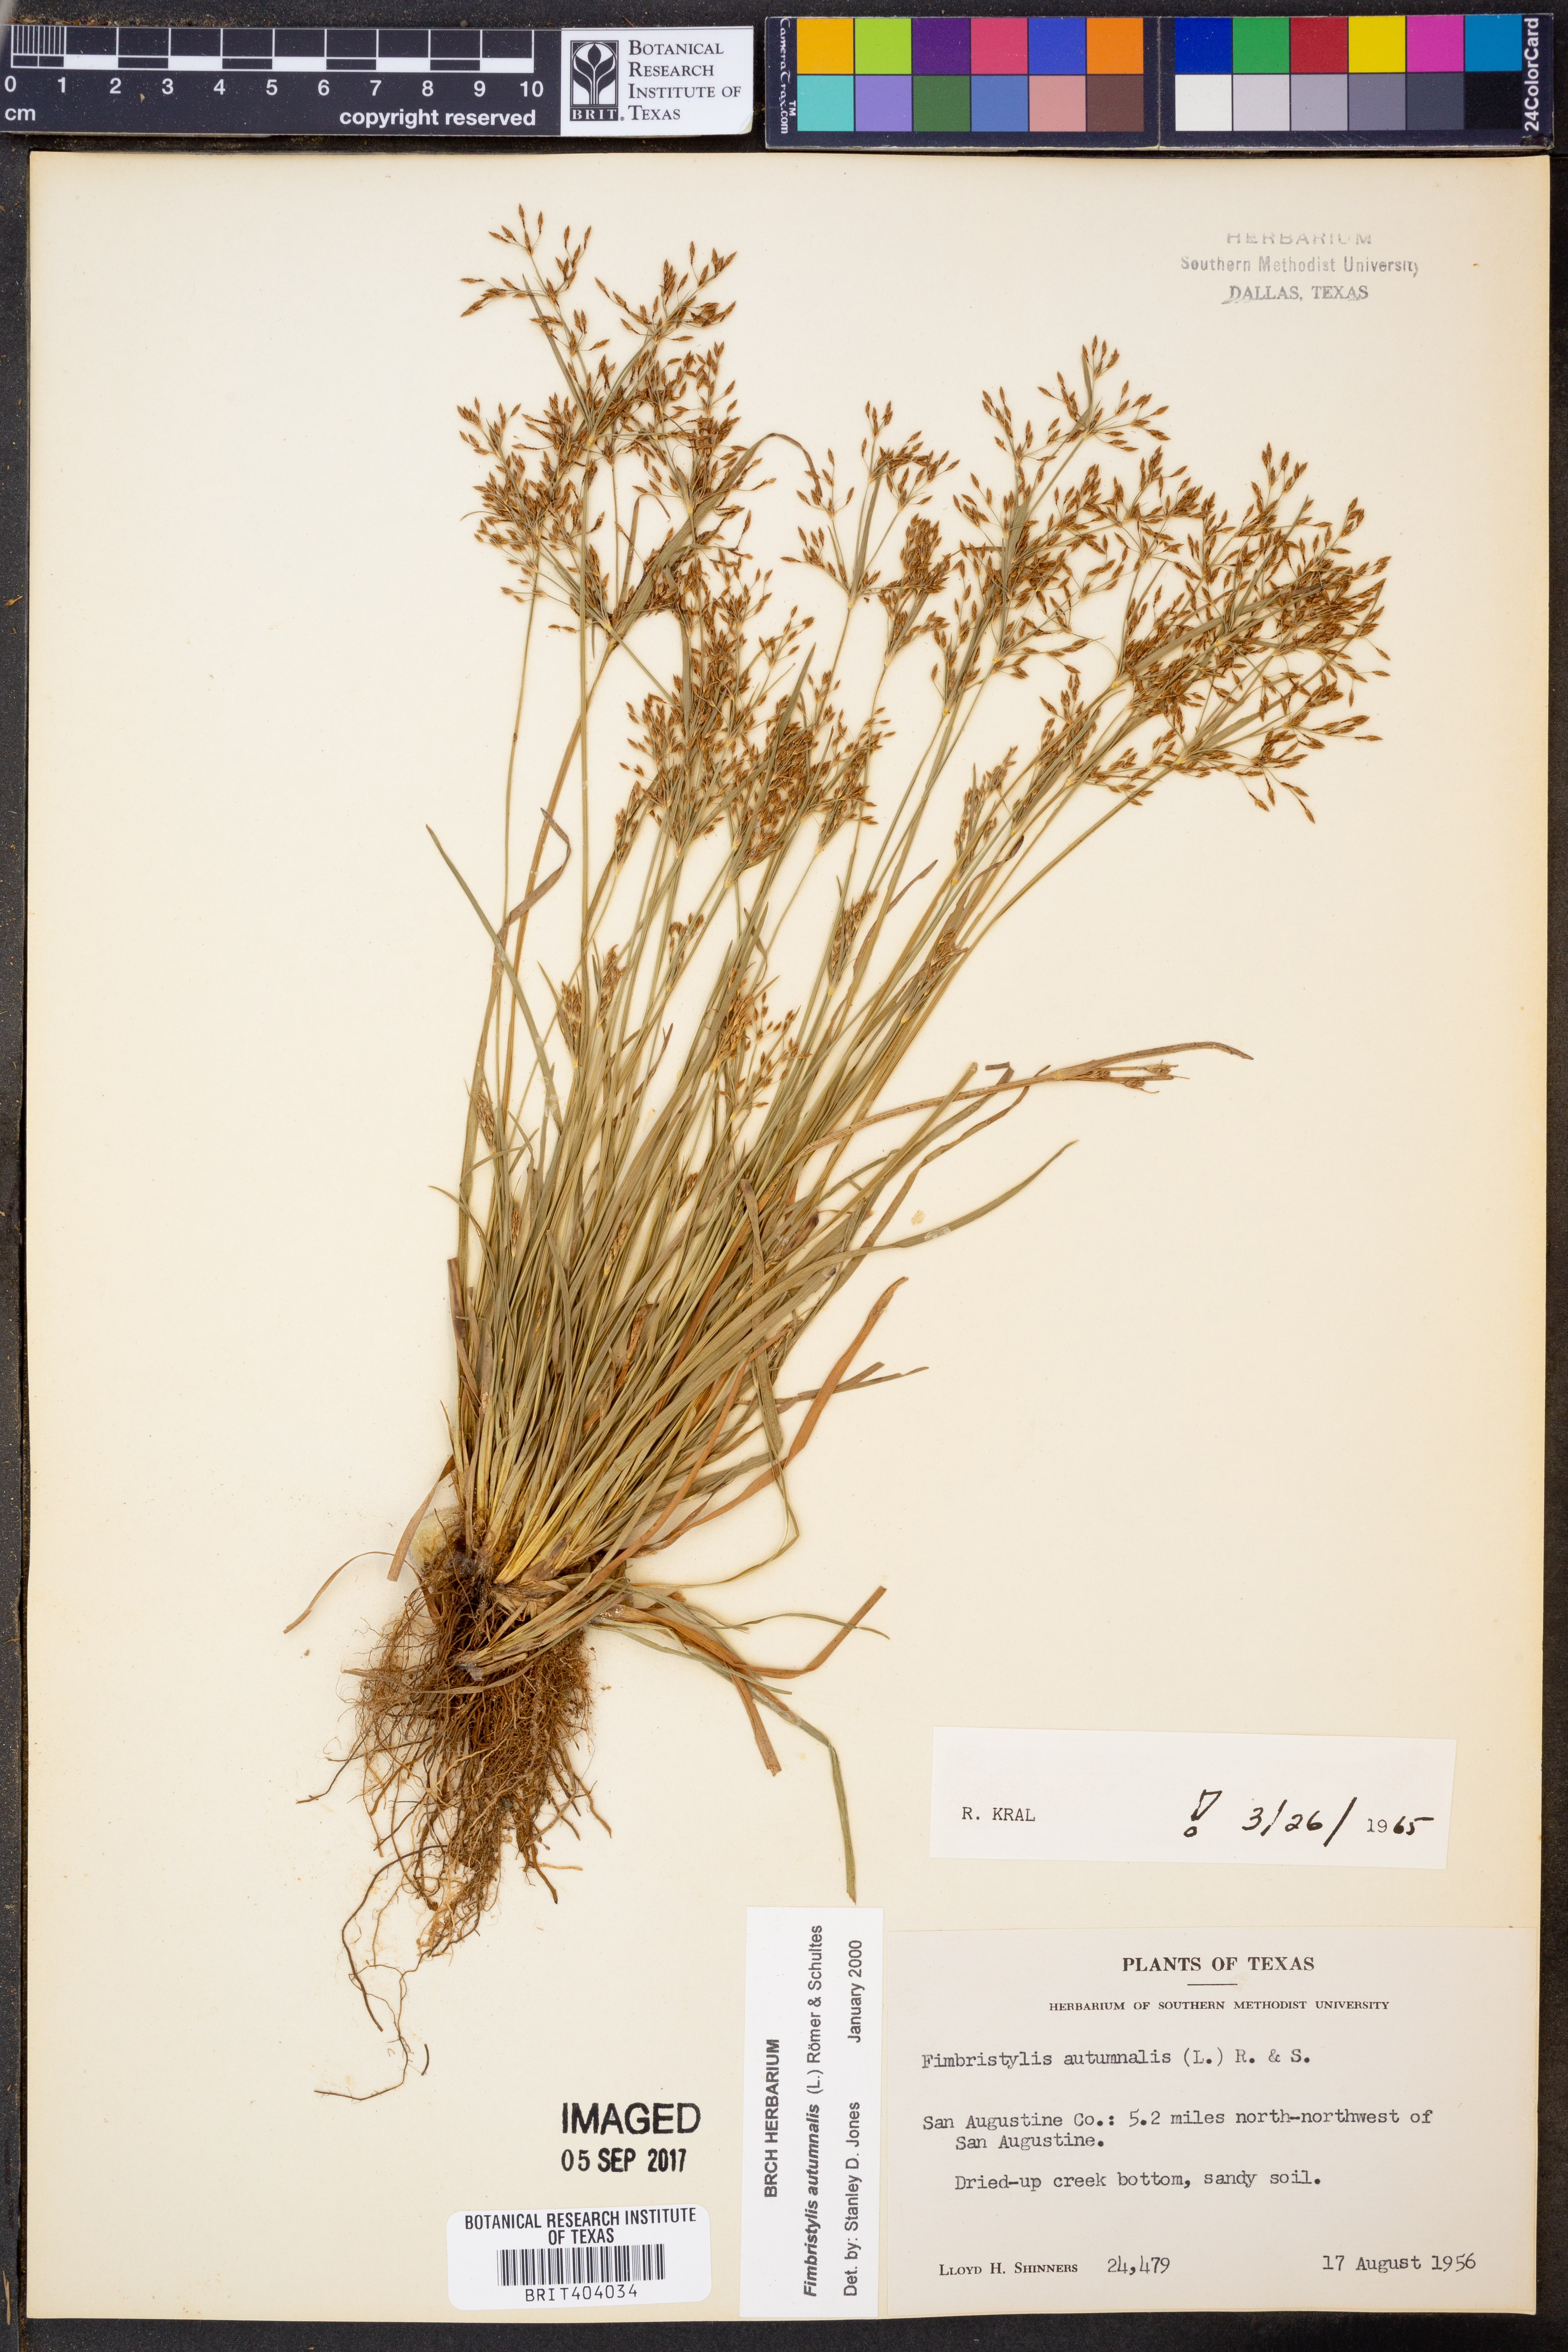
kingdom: Plantae
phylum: Tracheophyta
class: Liliopsida
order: Poales
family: Cyperaceae
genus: Fimbristylis
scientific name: Fimbristylis autumnalis
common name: Slender fimbristylis
